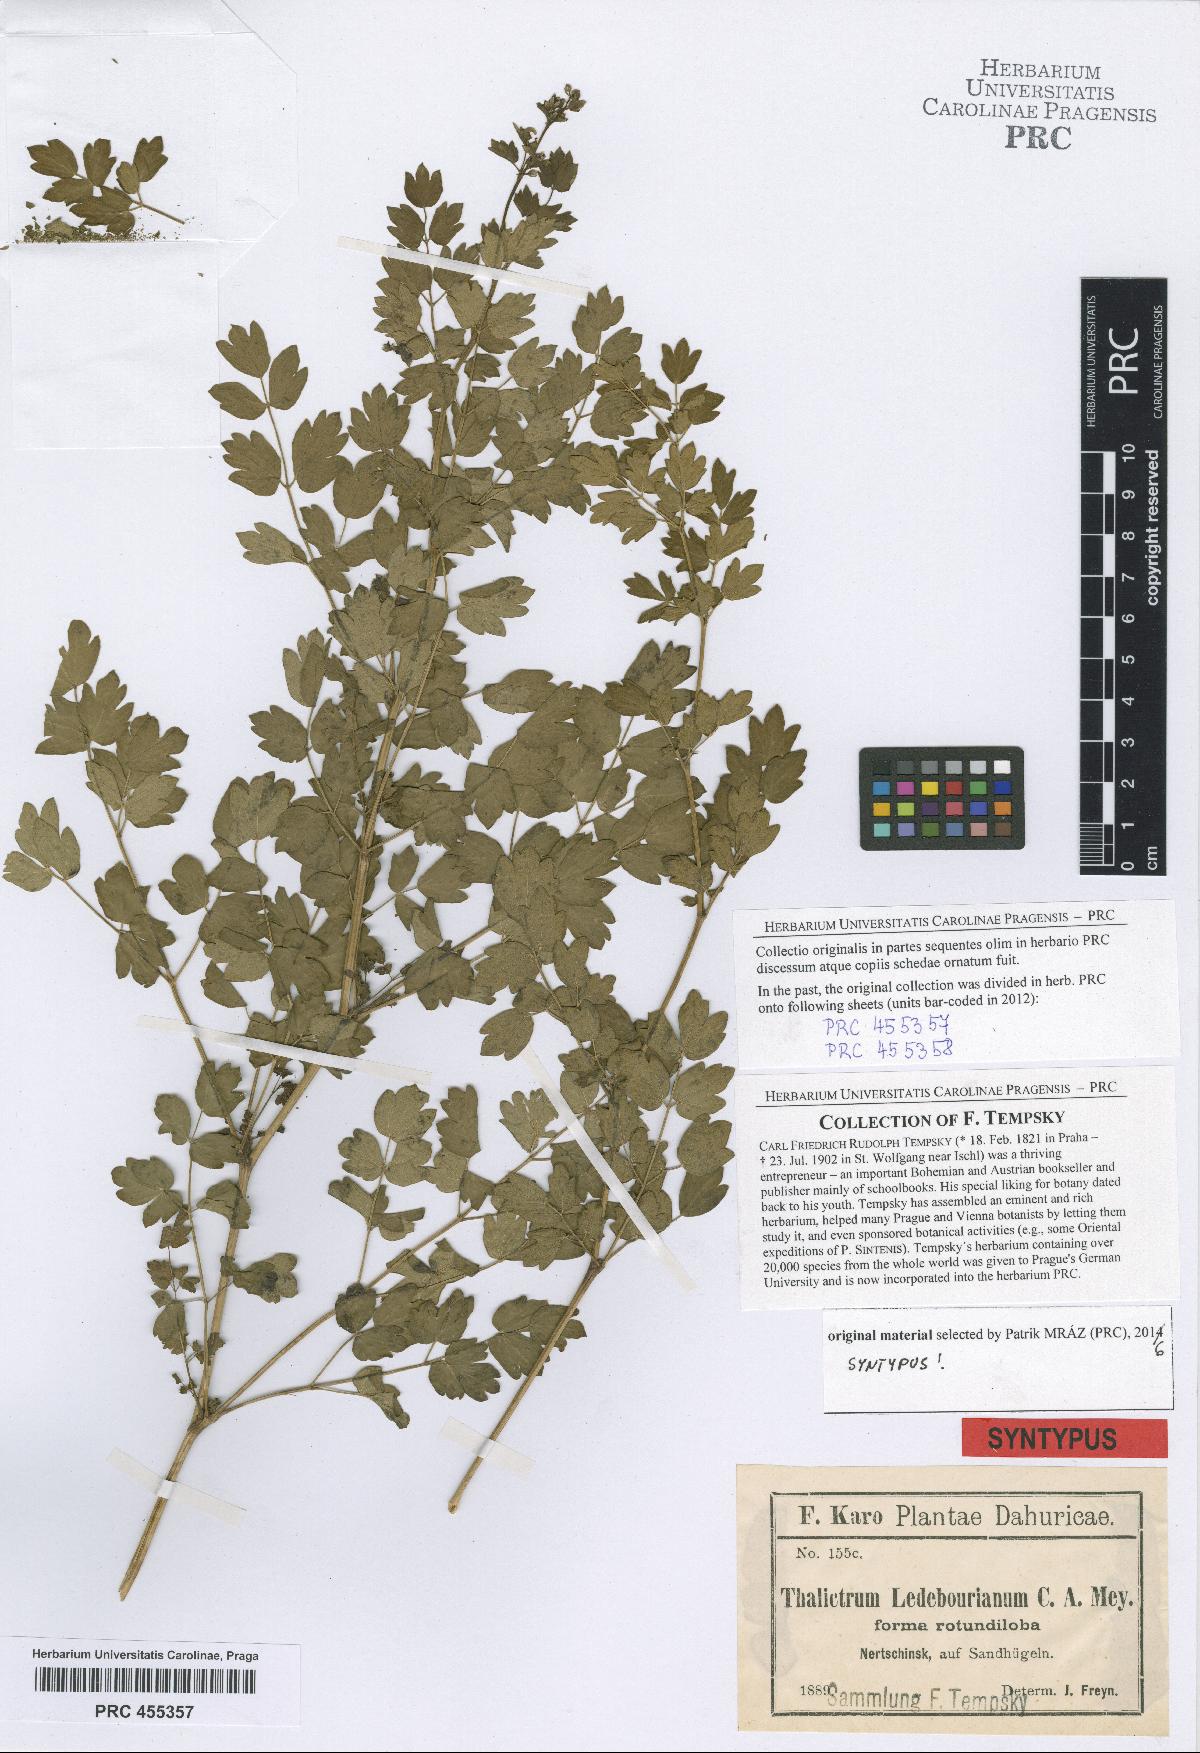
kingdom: Plantae
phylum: Tracheophyta
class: Magnoliopsida
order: Ranunculales
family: Ranunculaceae
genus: Thalictrum
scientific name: Thalictrum squarrosum
